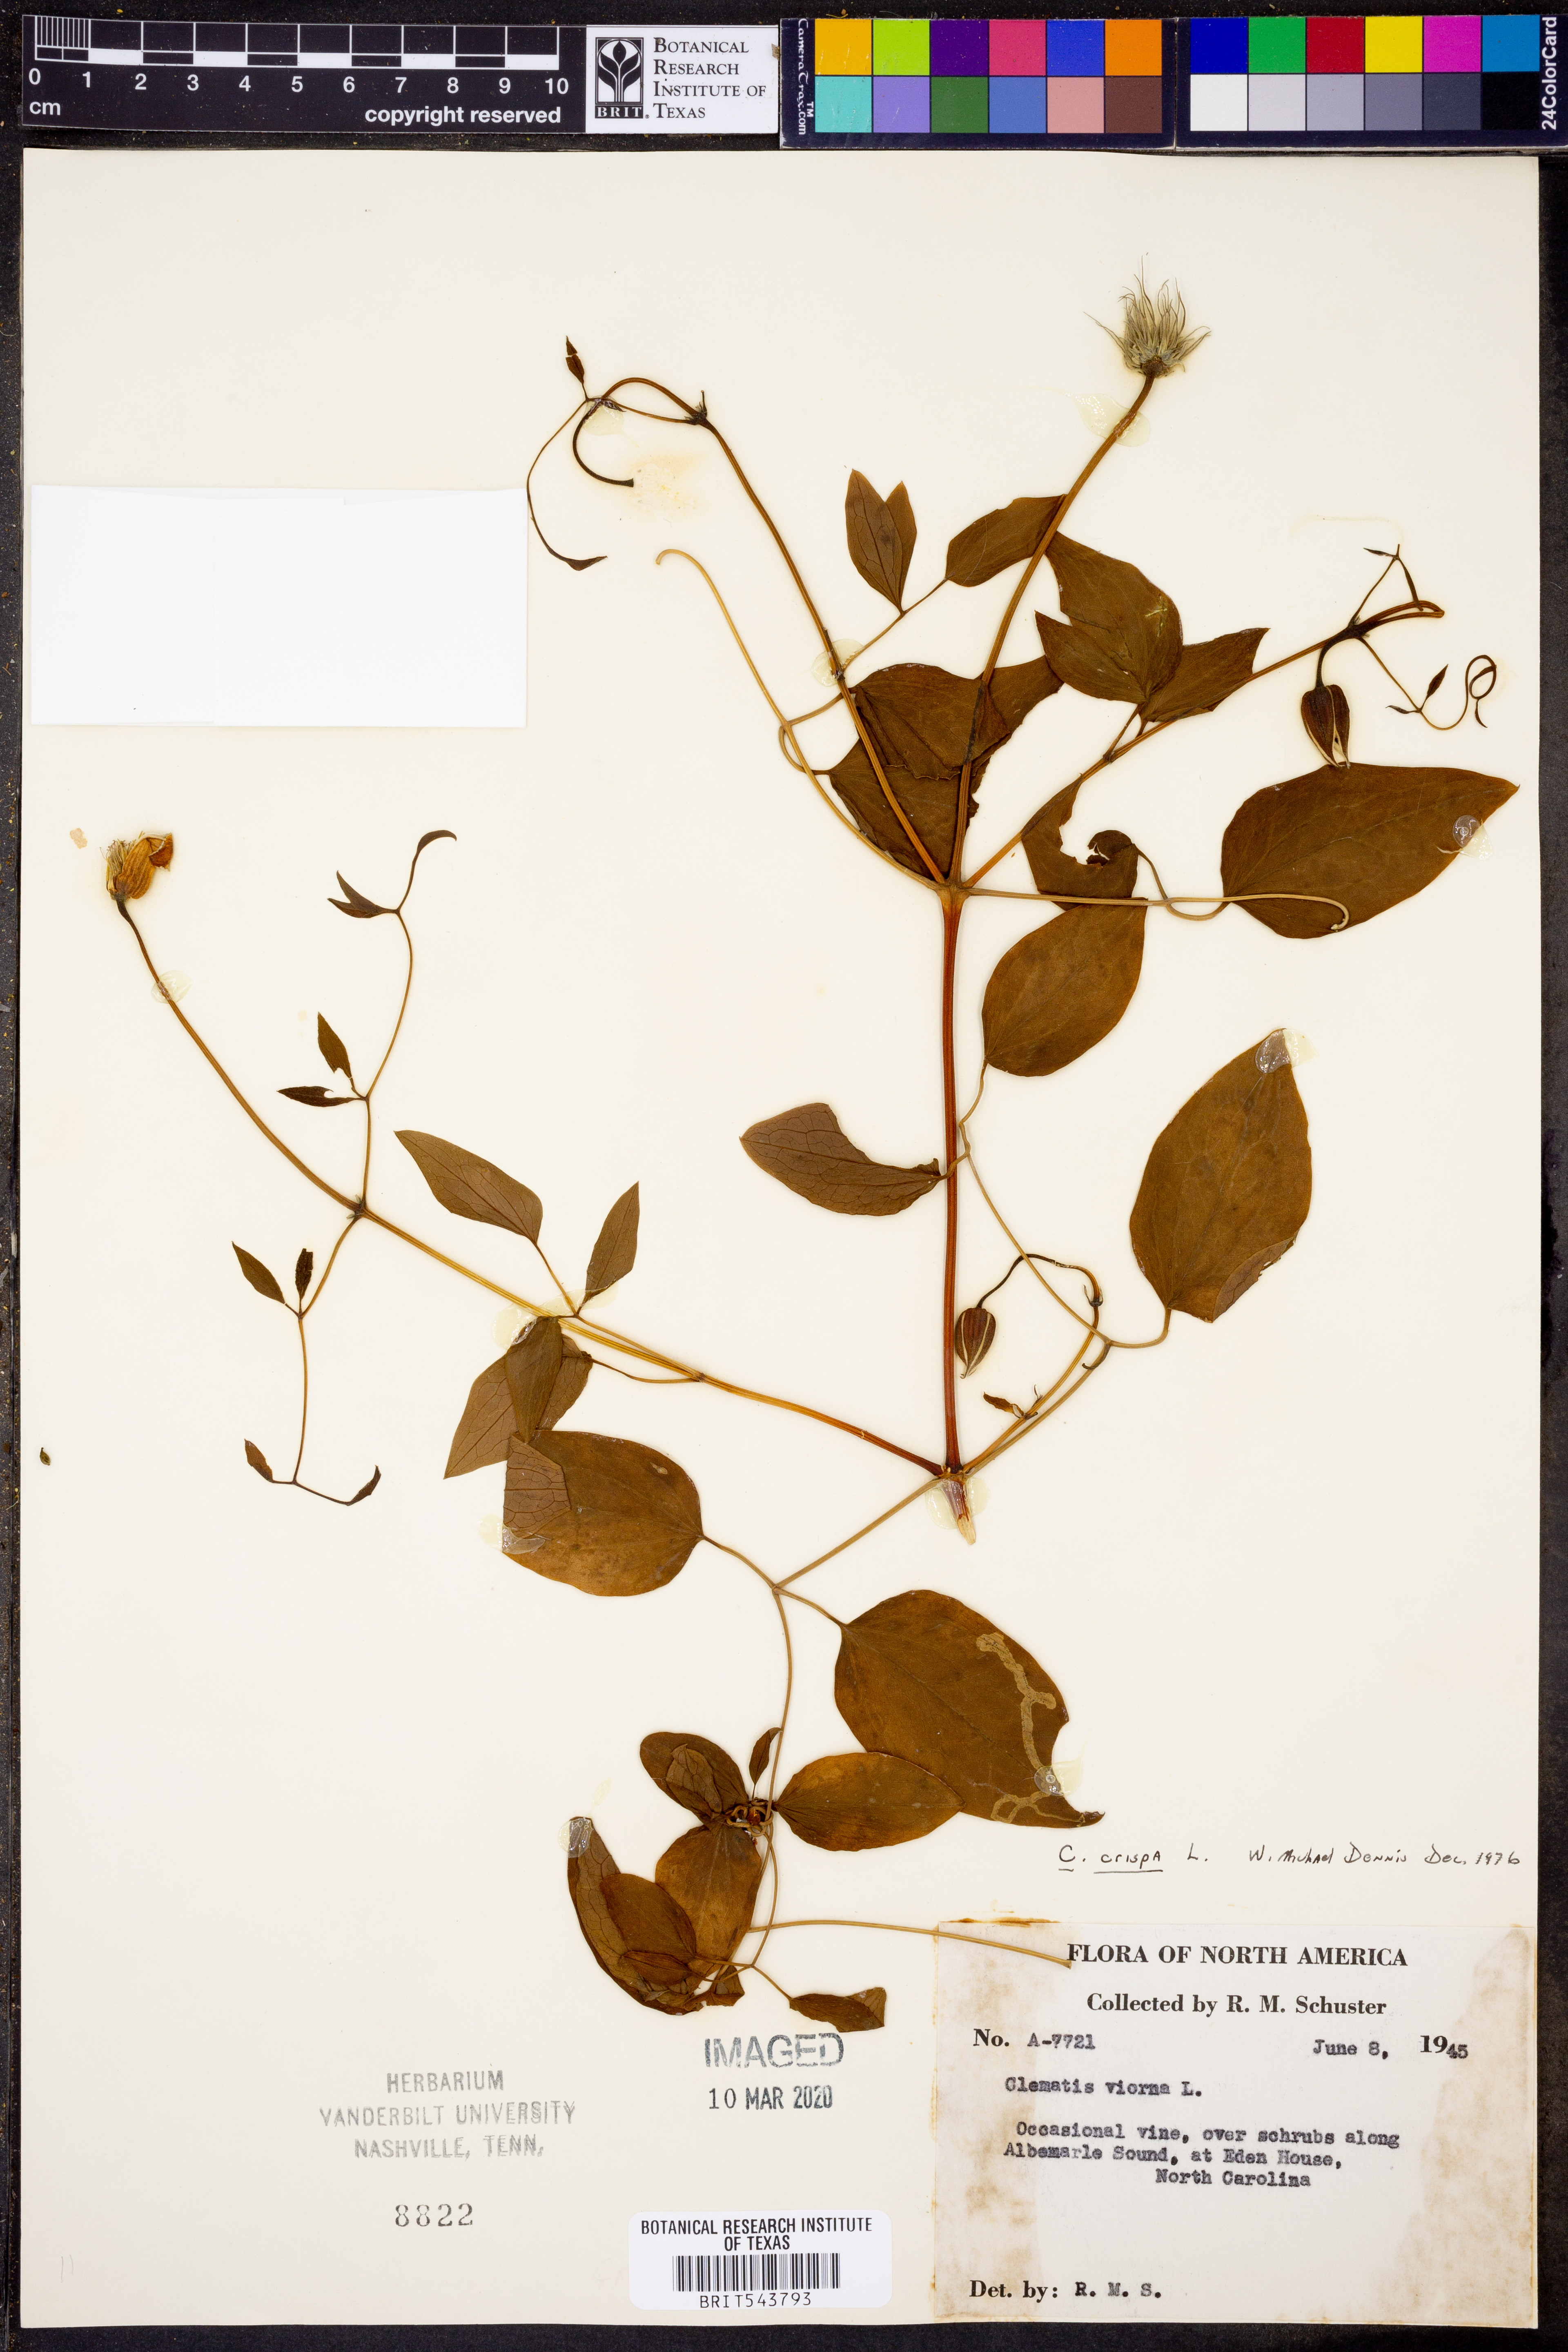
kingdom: Plantae
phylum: Tracheophyta
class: Magnoliopsida
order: Ranunculales
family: Ranunculaceae
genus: Clematis
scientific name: Clematis crispa
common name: Curly clematis
